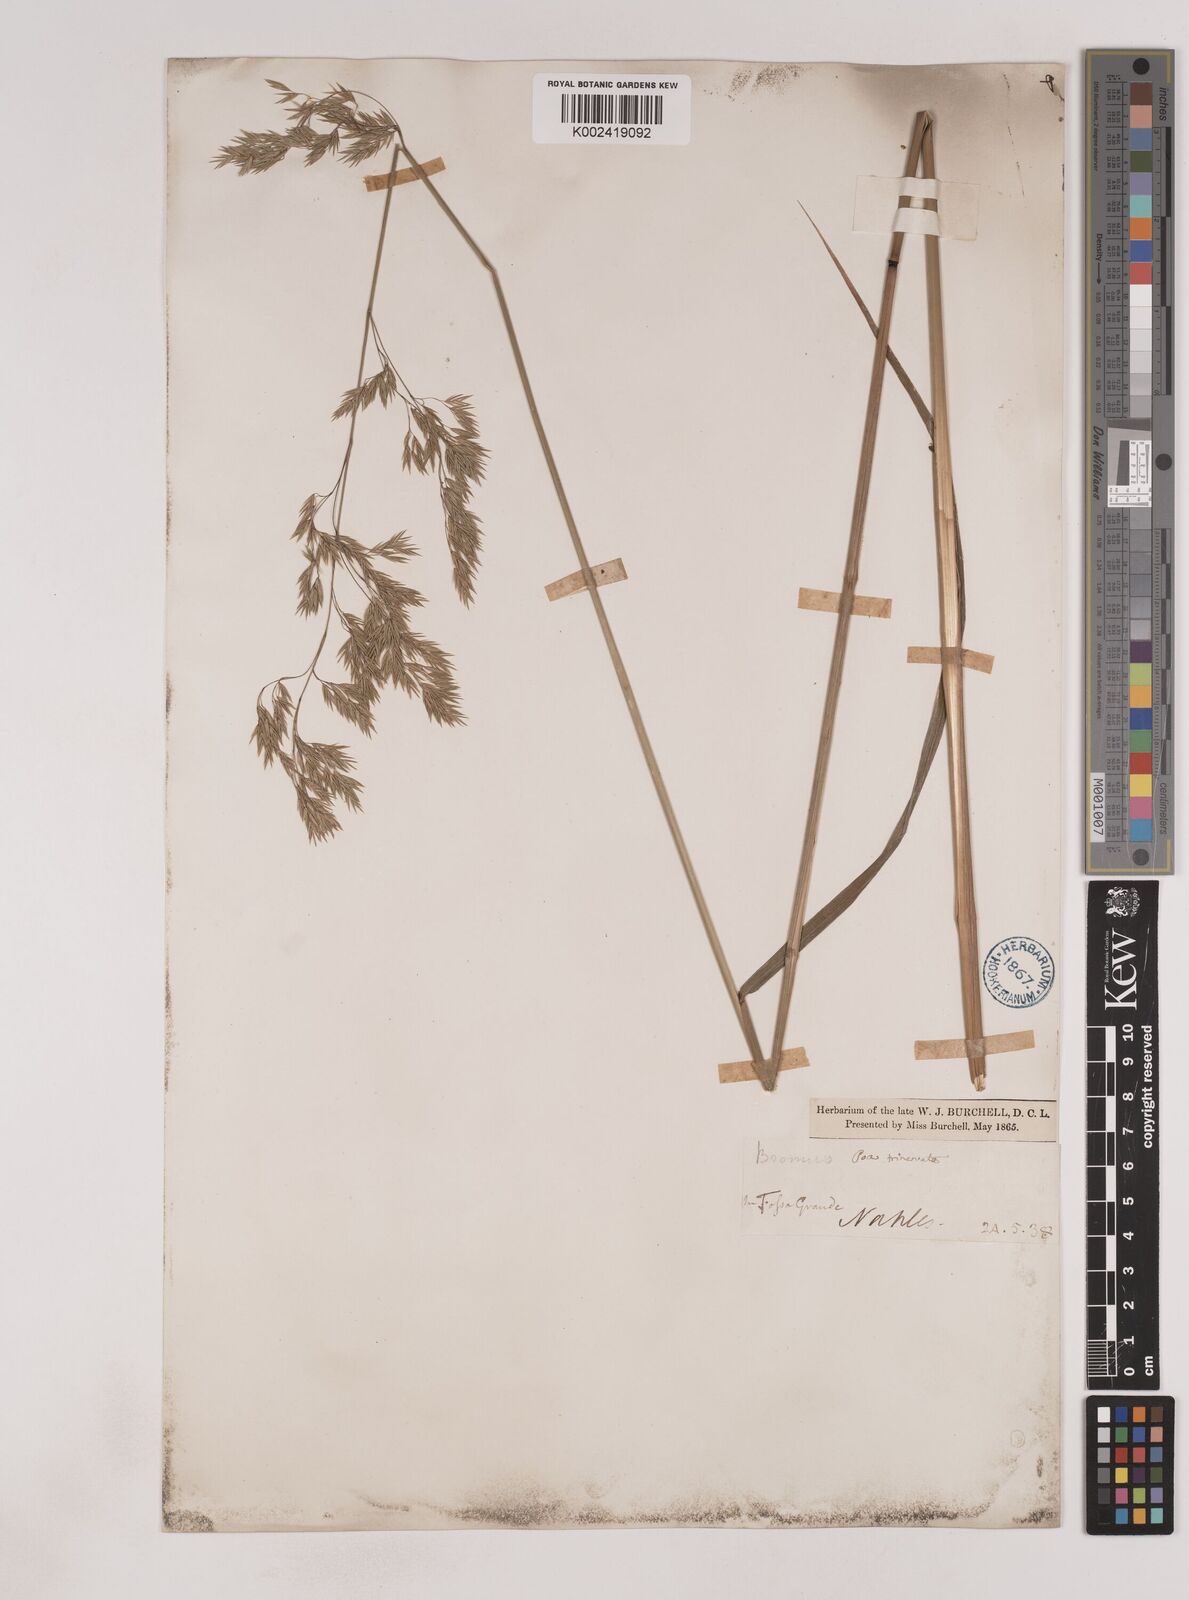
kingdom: Plantae
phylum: Tracheophyta
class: Liliopsida
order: Poales
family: Poaceae
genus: Festuca
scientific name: Festuca drymeja
